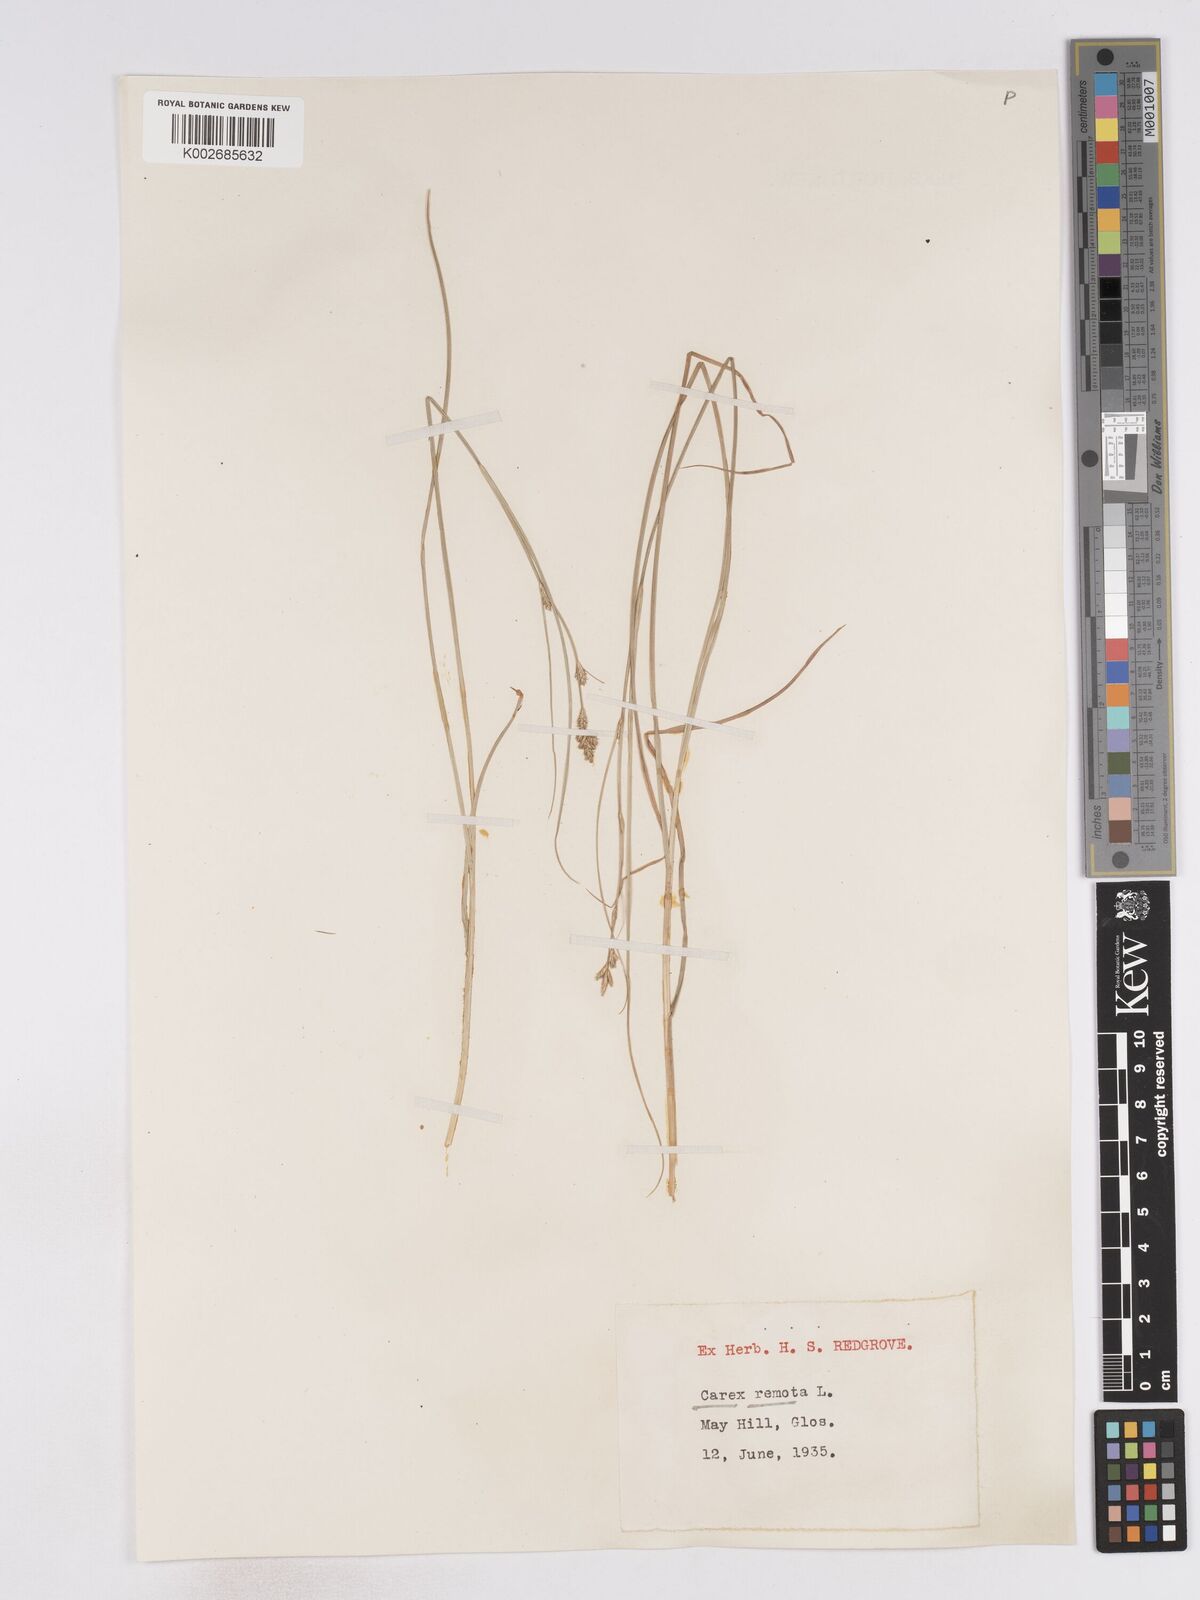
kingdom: Plantae
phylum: Tracheophyta
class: Liliopsida
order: Poales
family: Cyperaceae
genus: Carex
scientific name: Carex remota
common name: Remote sedge
